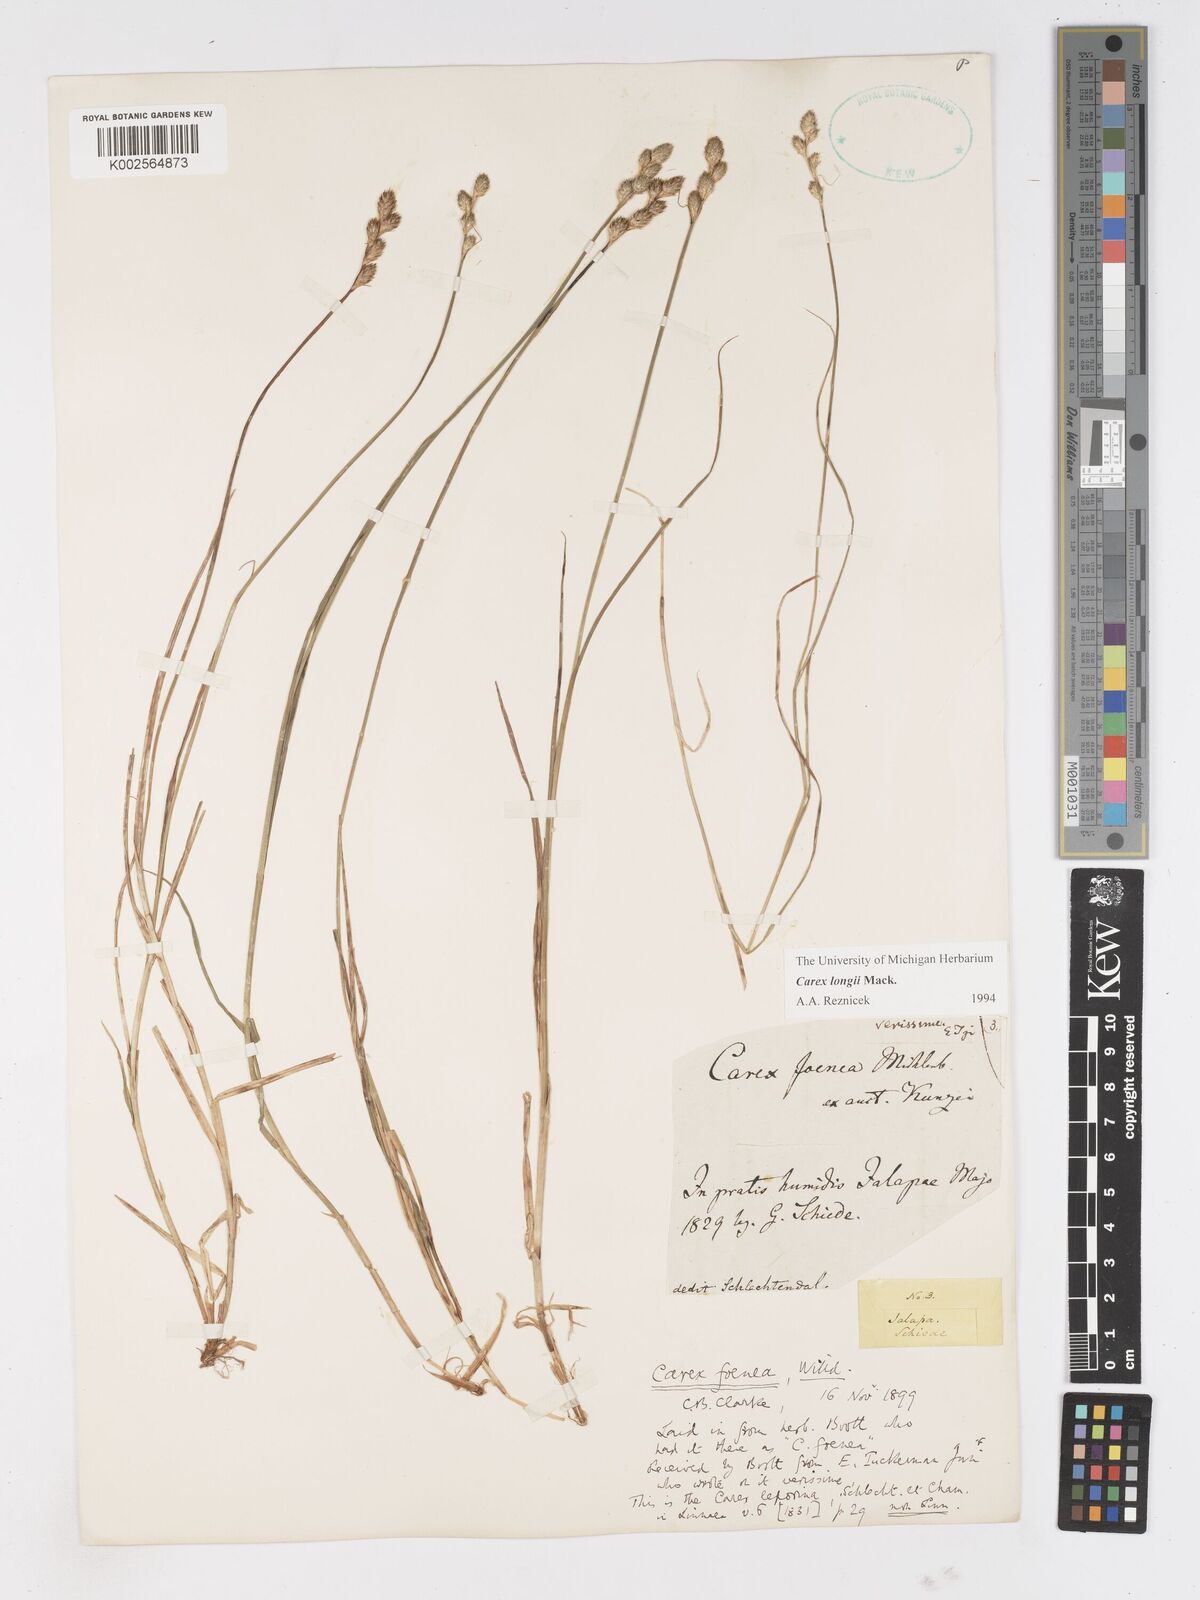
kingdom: Plantae
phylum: Tracheophyta
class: Liliopsida
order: Poales
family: Cyperaceae
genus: Carex
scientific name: Carex longii
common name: Long's sedge
